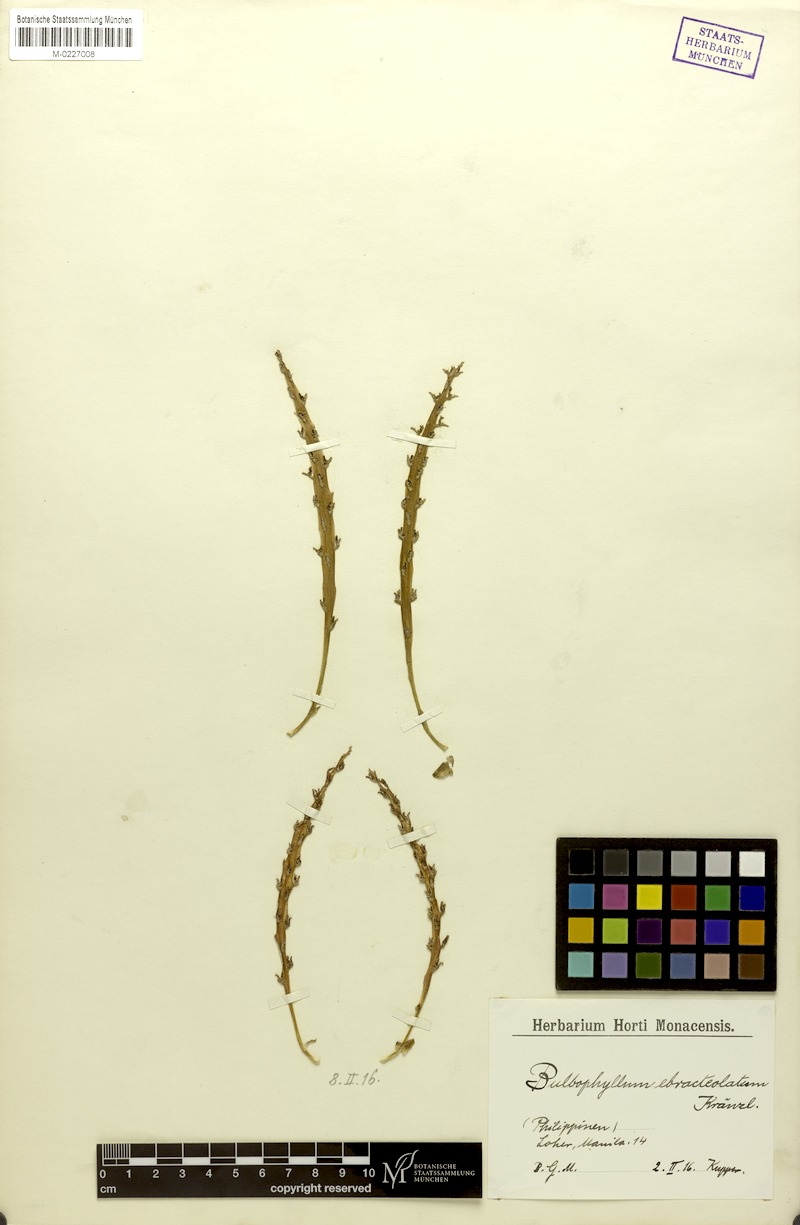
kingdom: Plantae
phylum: Tracheophyta
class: Liliopsida
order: Asparagales
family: Orchidaceae
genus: Bulbophyllum
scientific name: Bulbophyllum ebracteolatum
